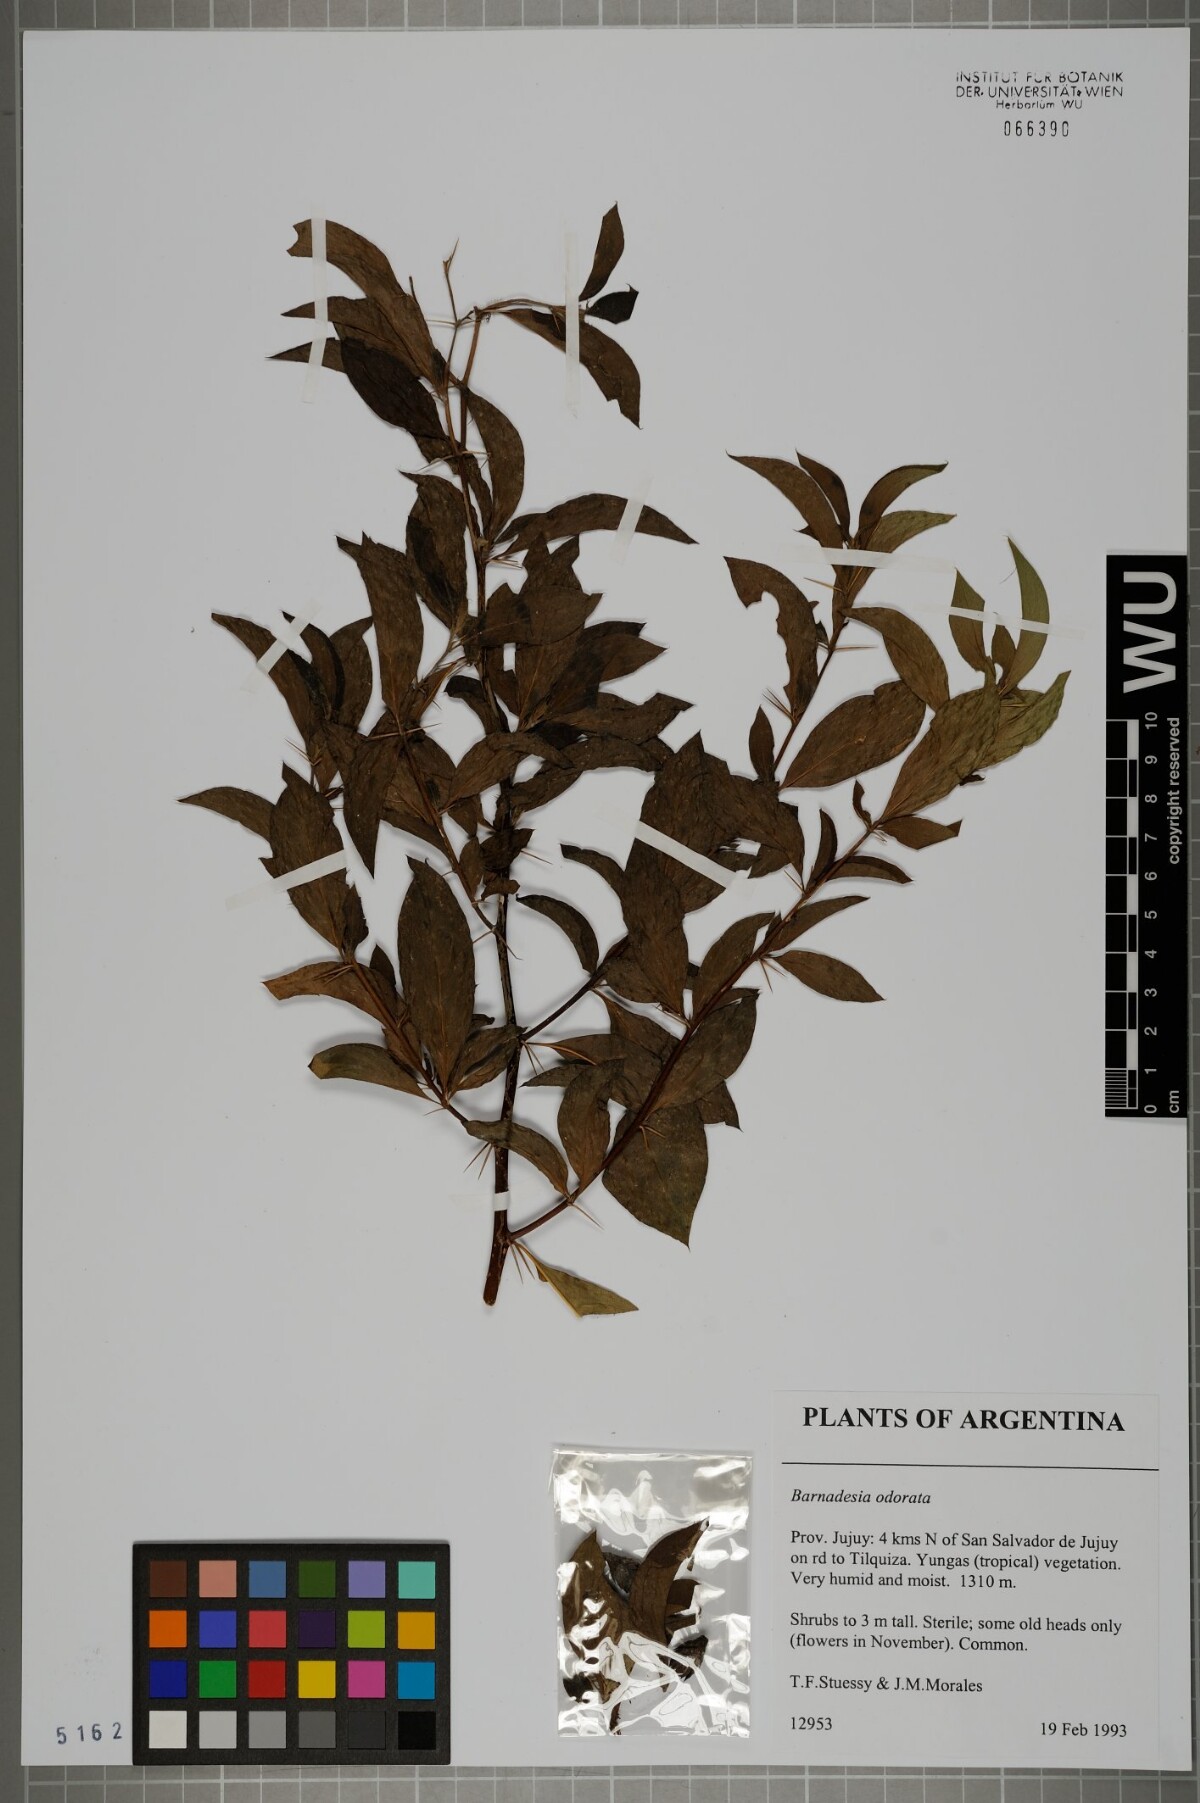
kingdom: Plantae
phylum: Tracheophyta
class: Magnoliopsida
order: Asterales
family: Asteraceae
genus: Barnadesia
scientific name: Barnadesia odorata
